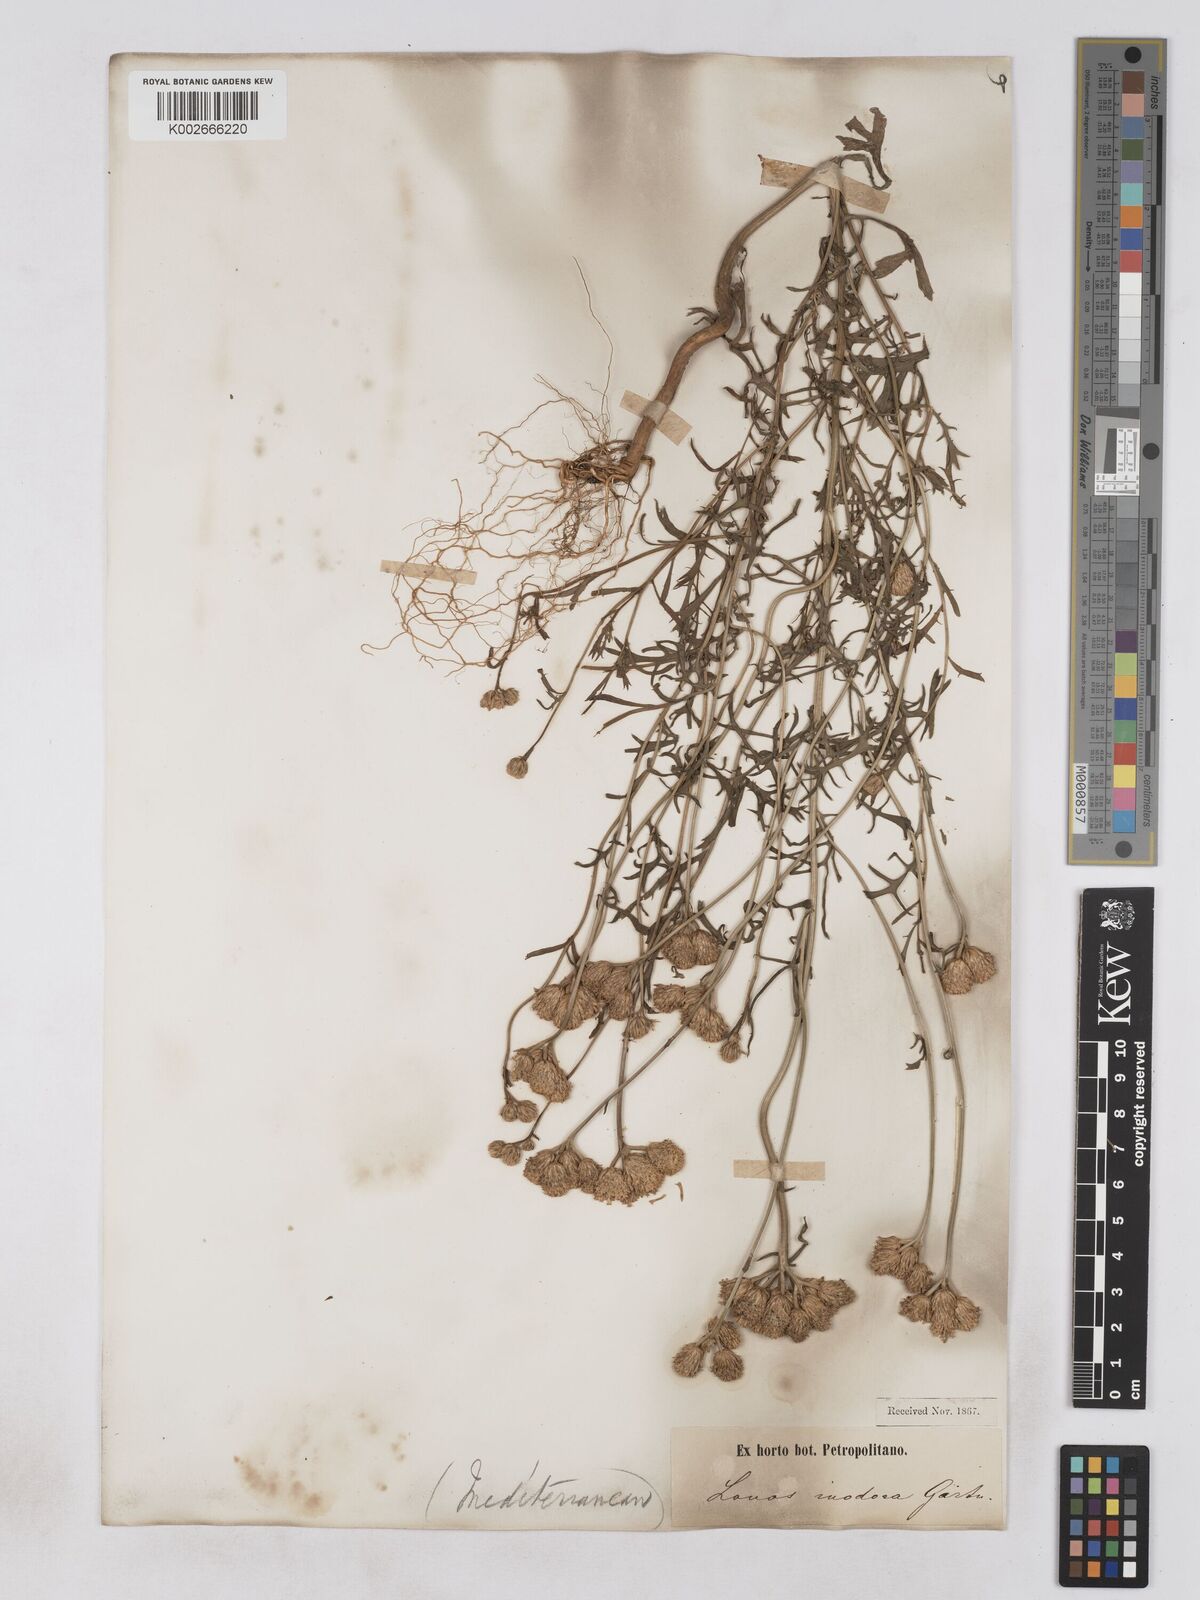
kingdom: Plantae
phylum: Tracheophyta
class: Magnoliopsida
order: Asterales
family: Asteraceae
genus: Lonas
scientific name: Lonas
